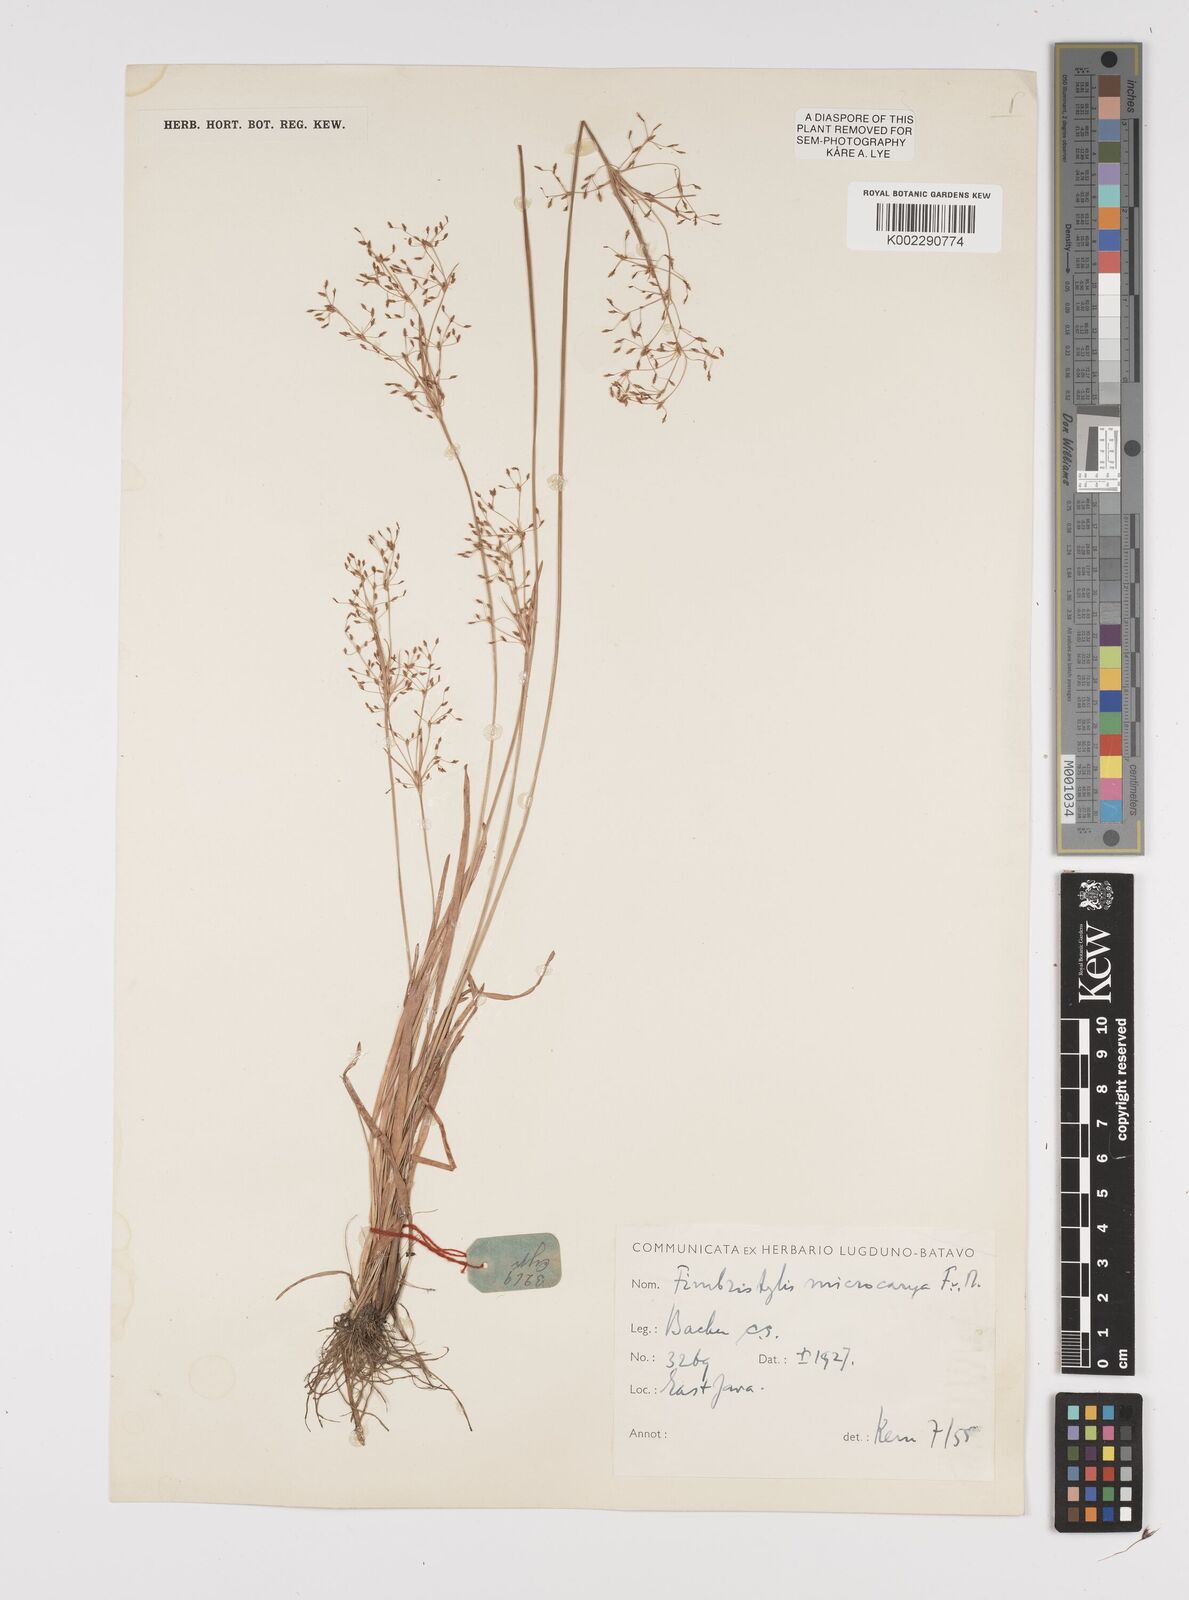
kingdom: Plantae
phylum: Tracheophyta
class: Liliopsida
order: Poales
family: Cyperaceae
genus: Fimbristylis
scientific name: Fimbristylis microcarya
